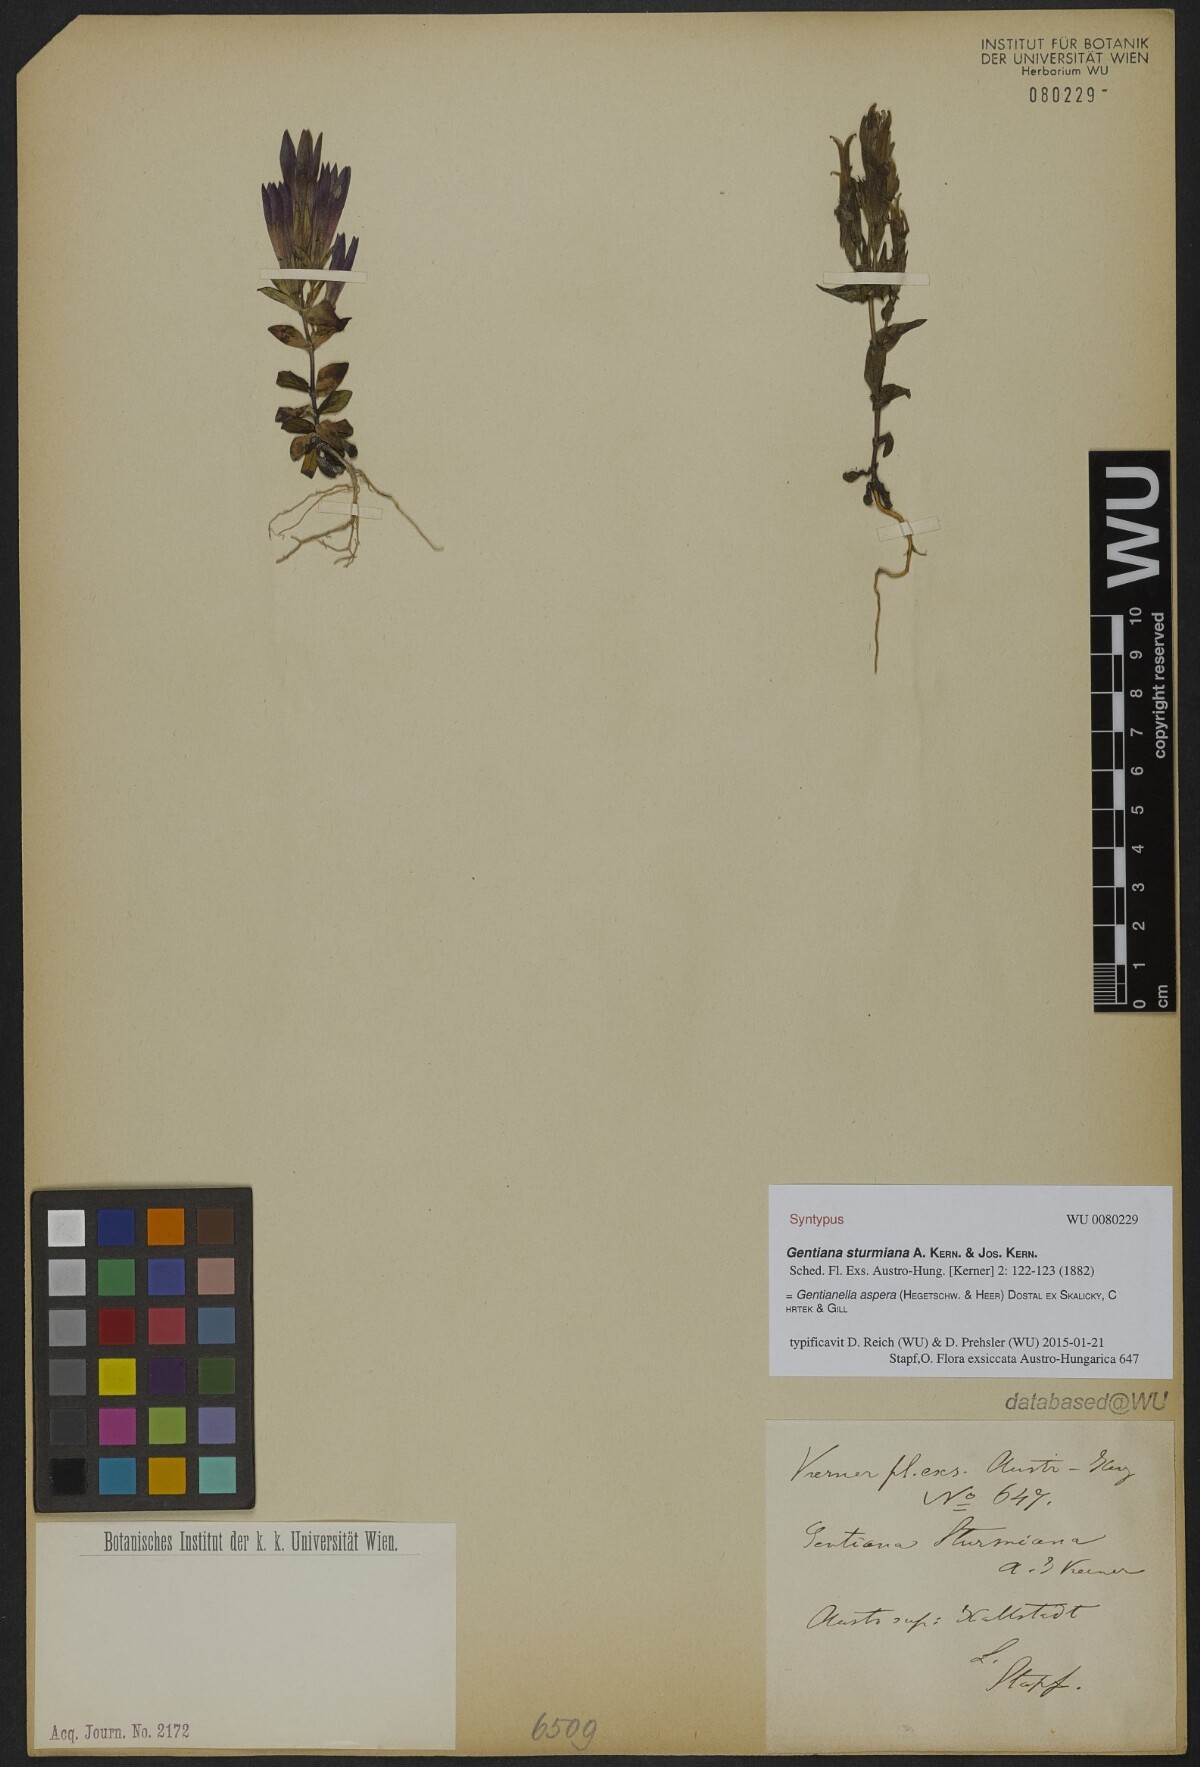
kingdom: Plantae
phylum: Tracheophyta
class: Magnoliopsida
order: Gentianales
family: Gentianaceae
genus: Gentianella
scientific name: Gentianella obtusifolia
